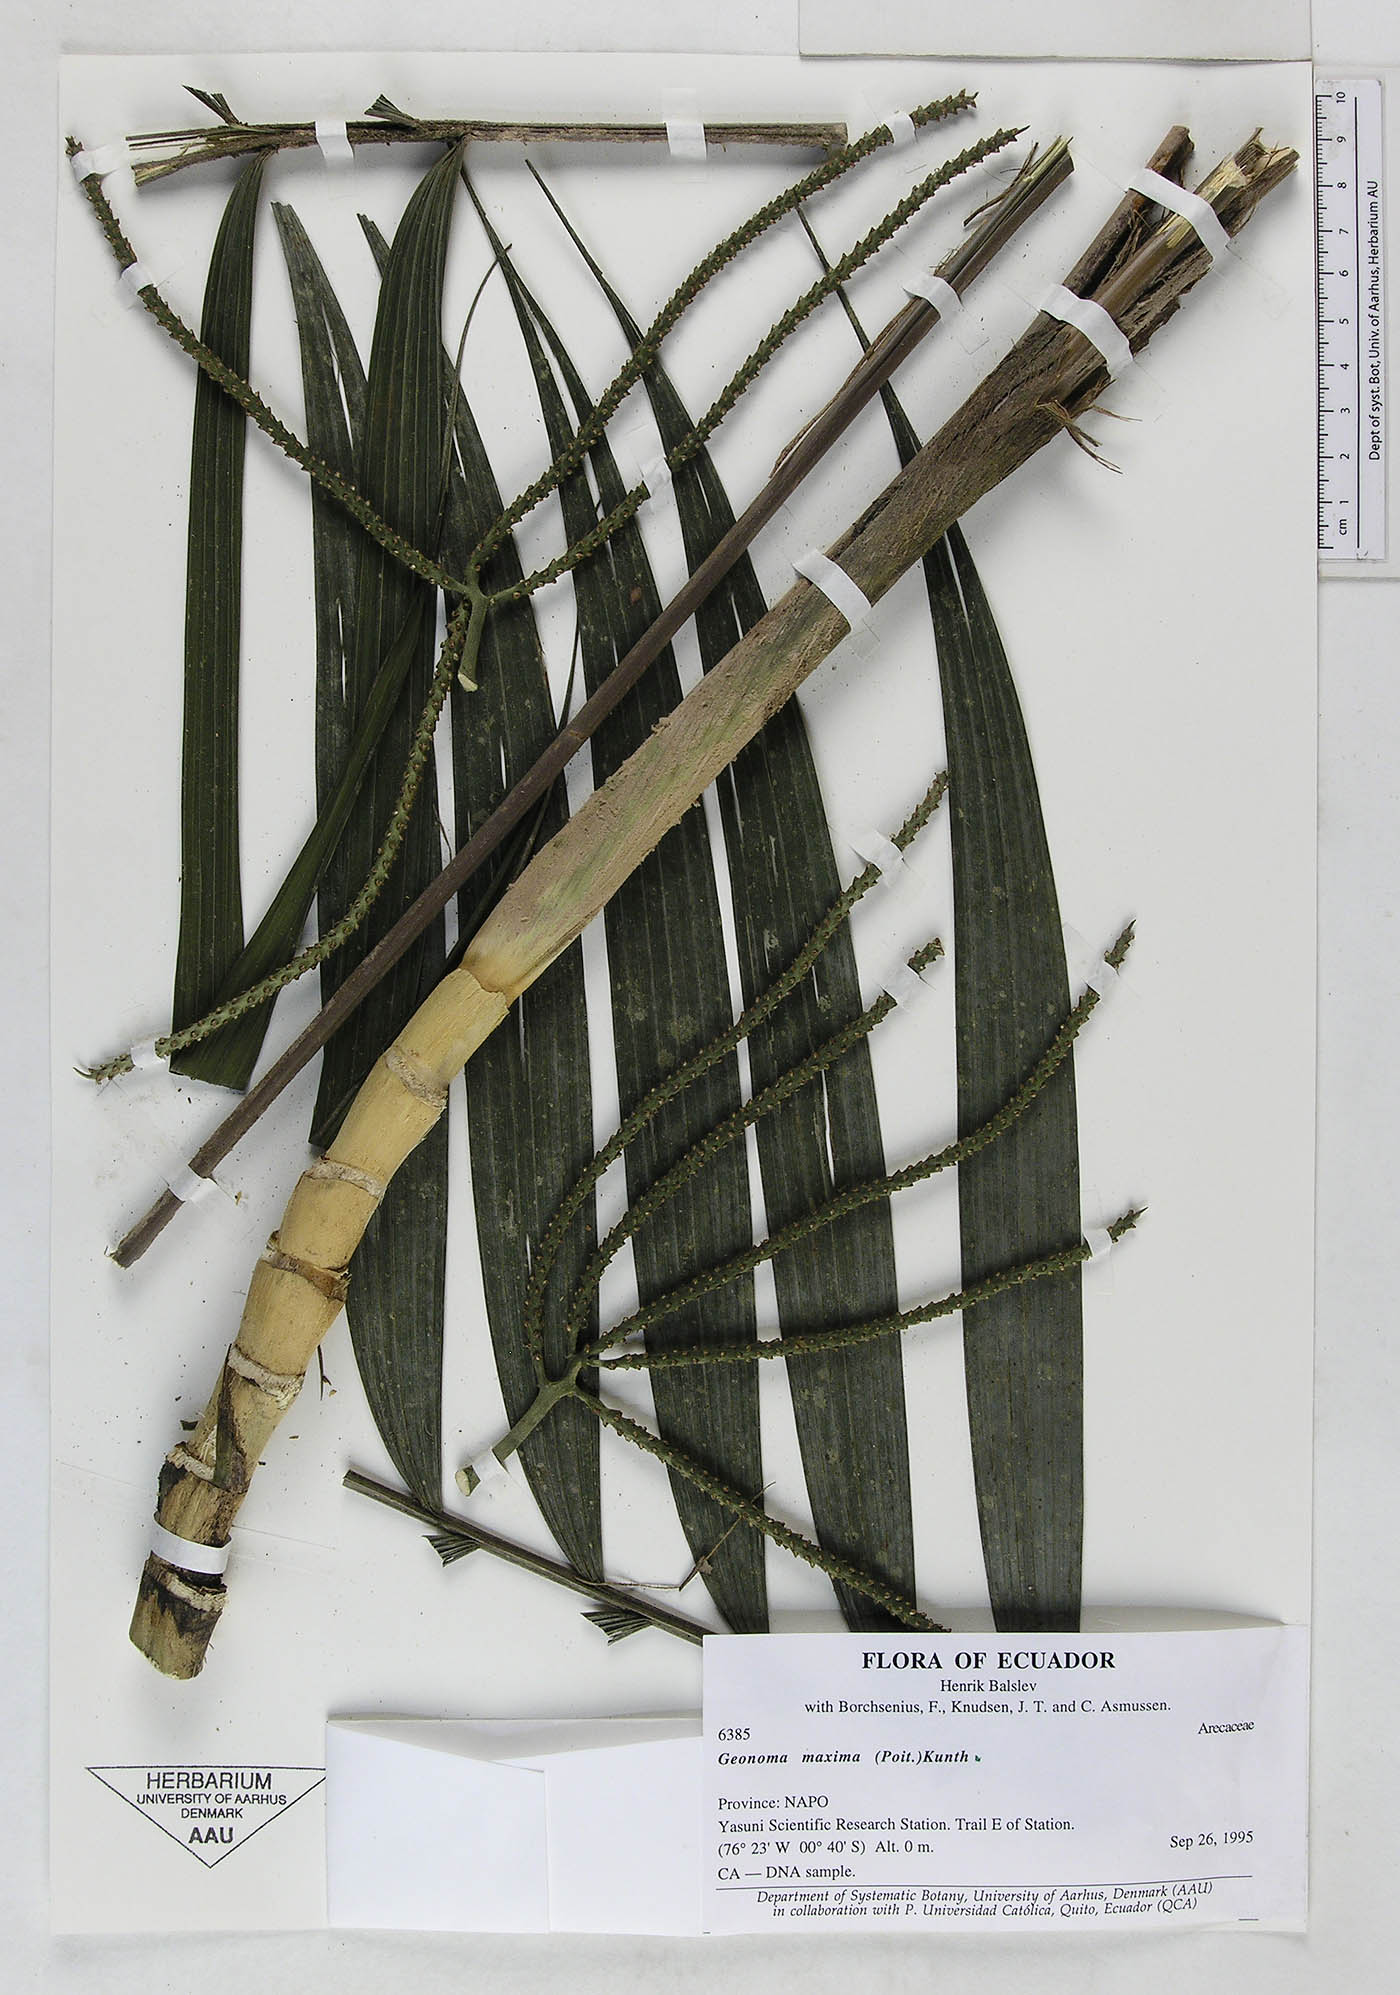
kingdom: Plantae
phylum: Tracheophyta
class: Liliopsida
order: Arecales
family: Arecaceae
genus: Geonoma
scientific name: Geonoma maxima
